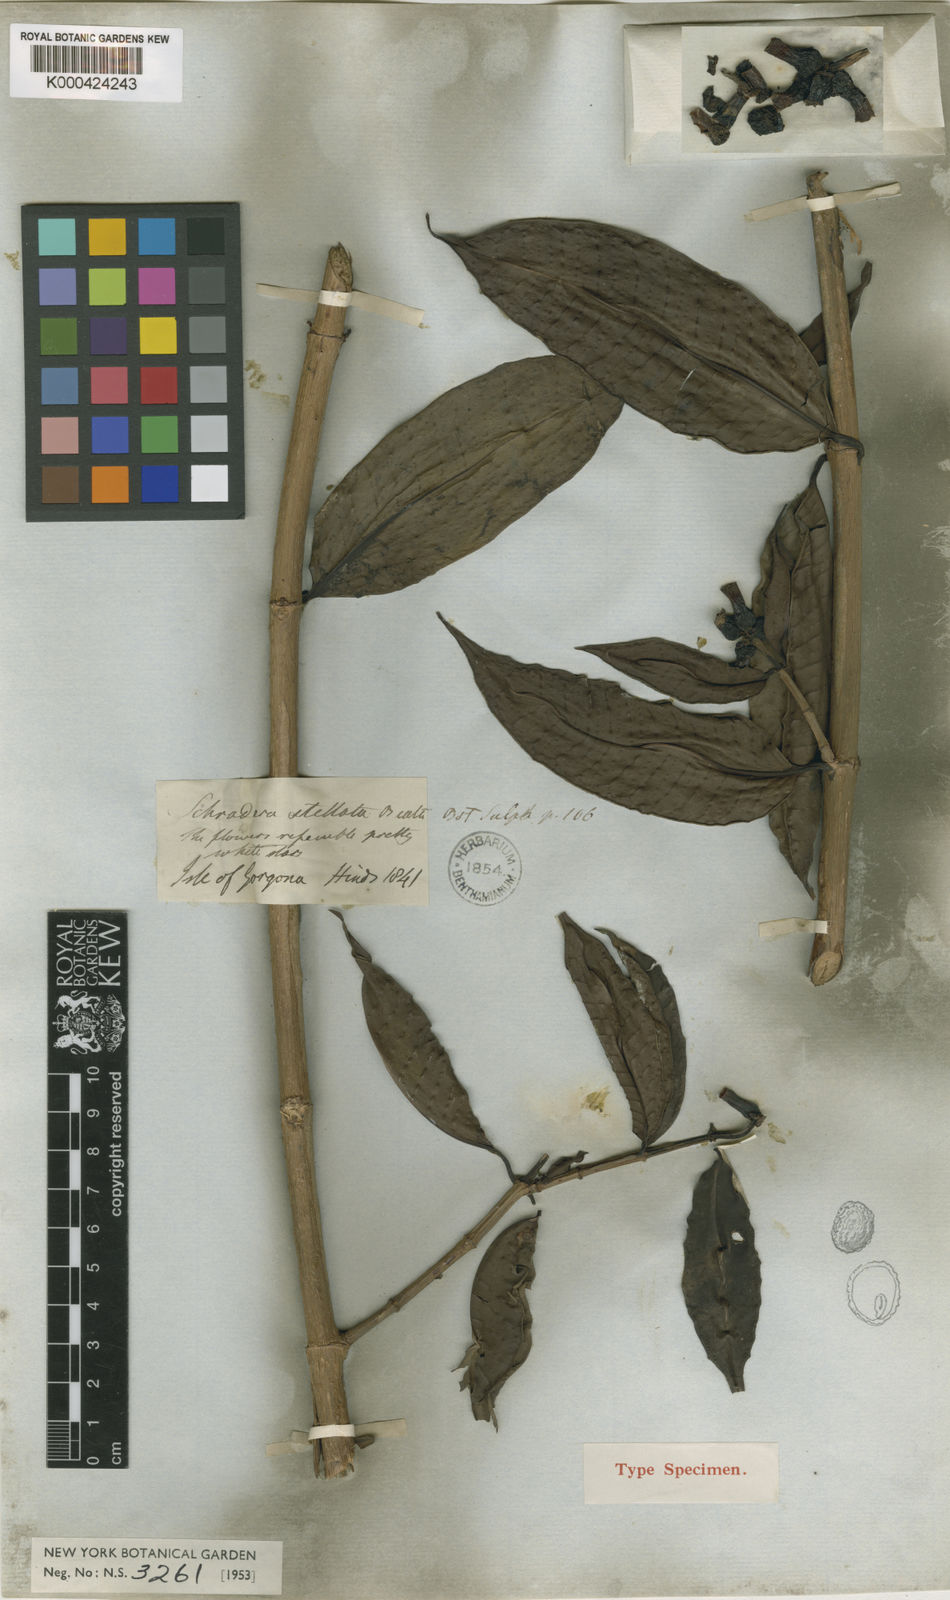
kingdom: Plantae
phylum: Tracheophyta
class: Magnoliopsida
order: Gentianales
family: Rubiaceae
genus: Schradera
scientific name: Schradera stellata
